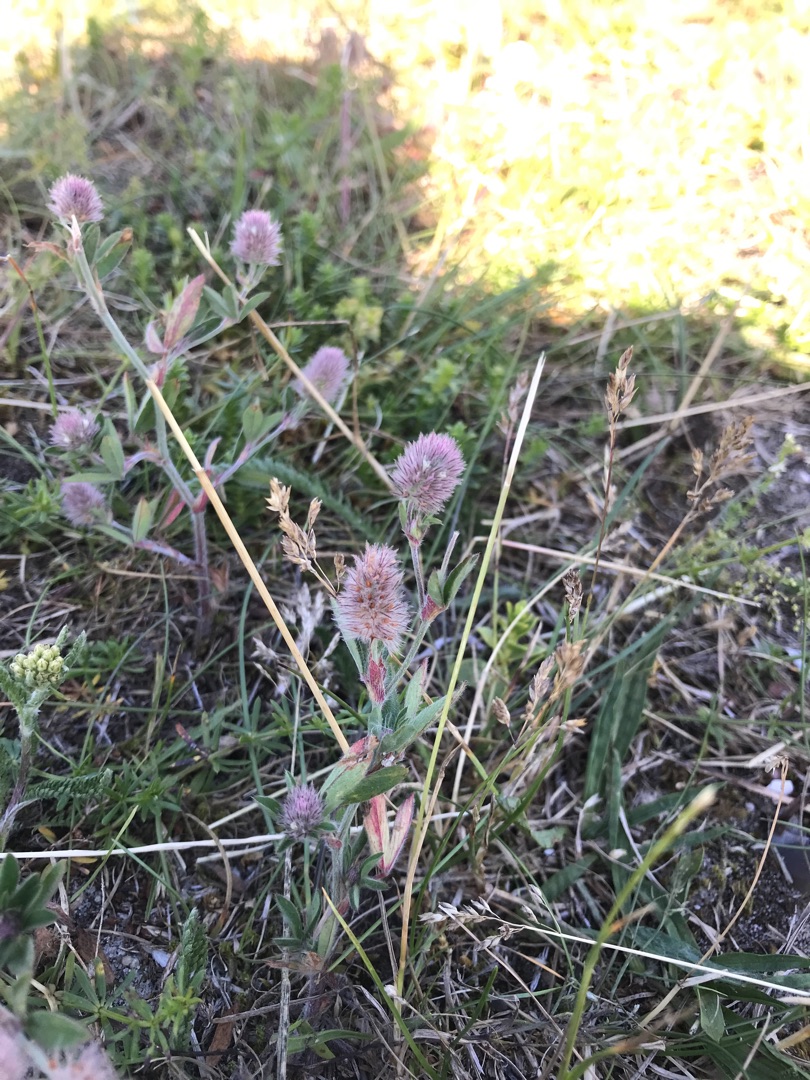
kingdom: Plantae
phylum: Tracheophyta
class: Magnoliopsida
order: Fabales
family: Fabaceae
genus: Trifolium
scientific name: Trifolium arvense
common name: Hare-kløver
